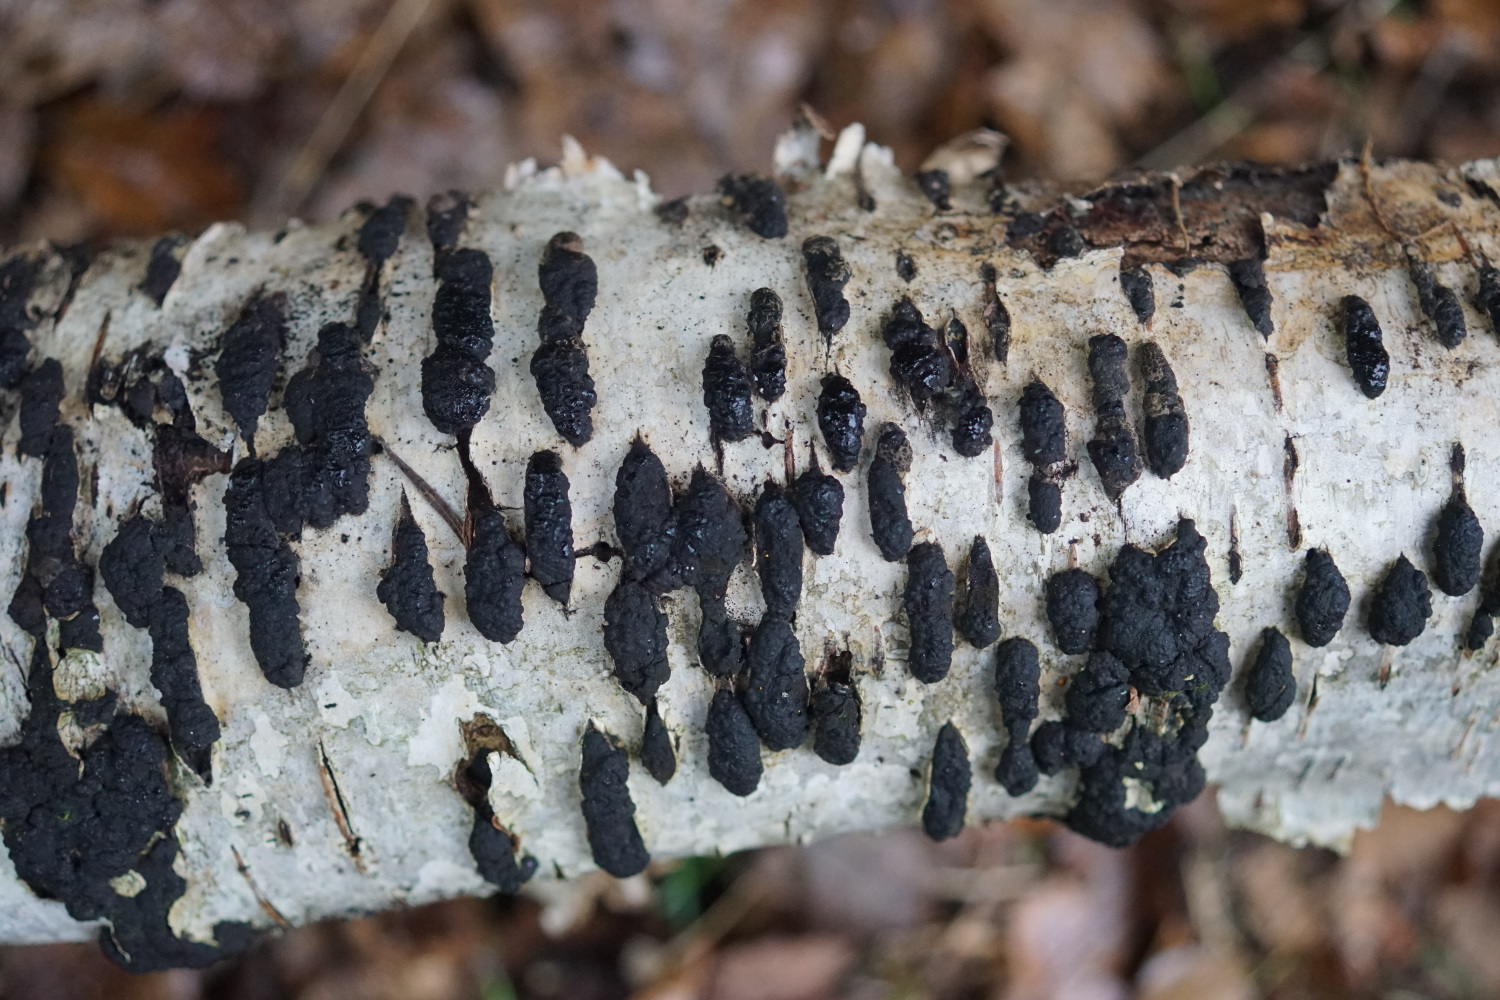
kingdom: Fungi
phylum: Ascomycota
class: Sordariomycetes
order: Xylariales
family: Hypoxylaceae
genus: Jackrogersella
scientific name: Jackrogersella multiformis
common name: foranderlig kulbær
